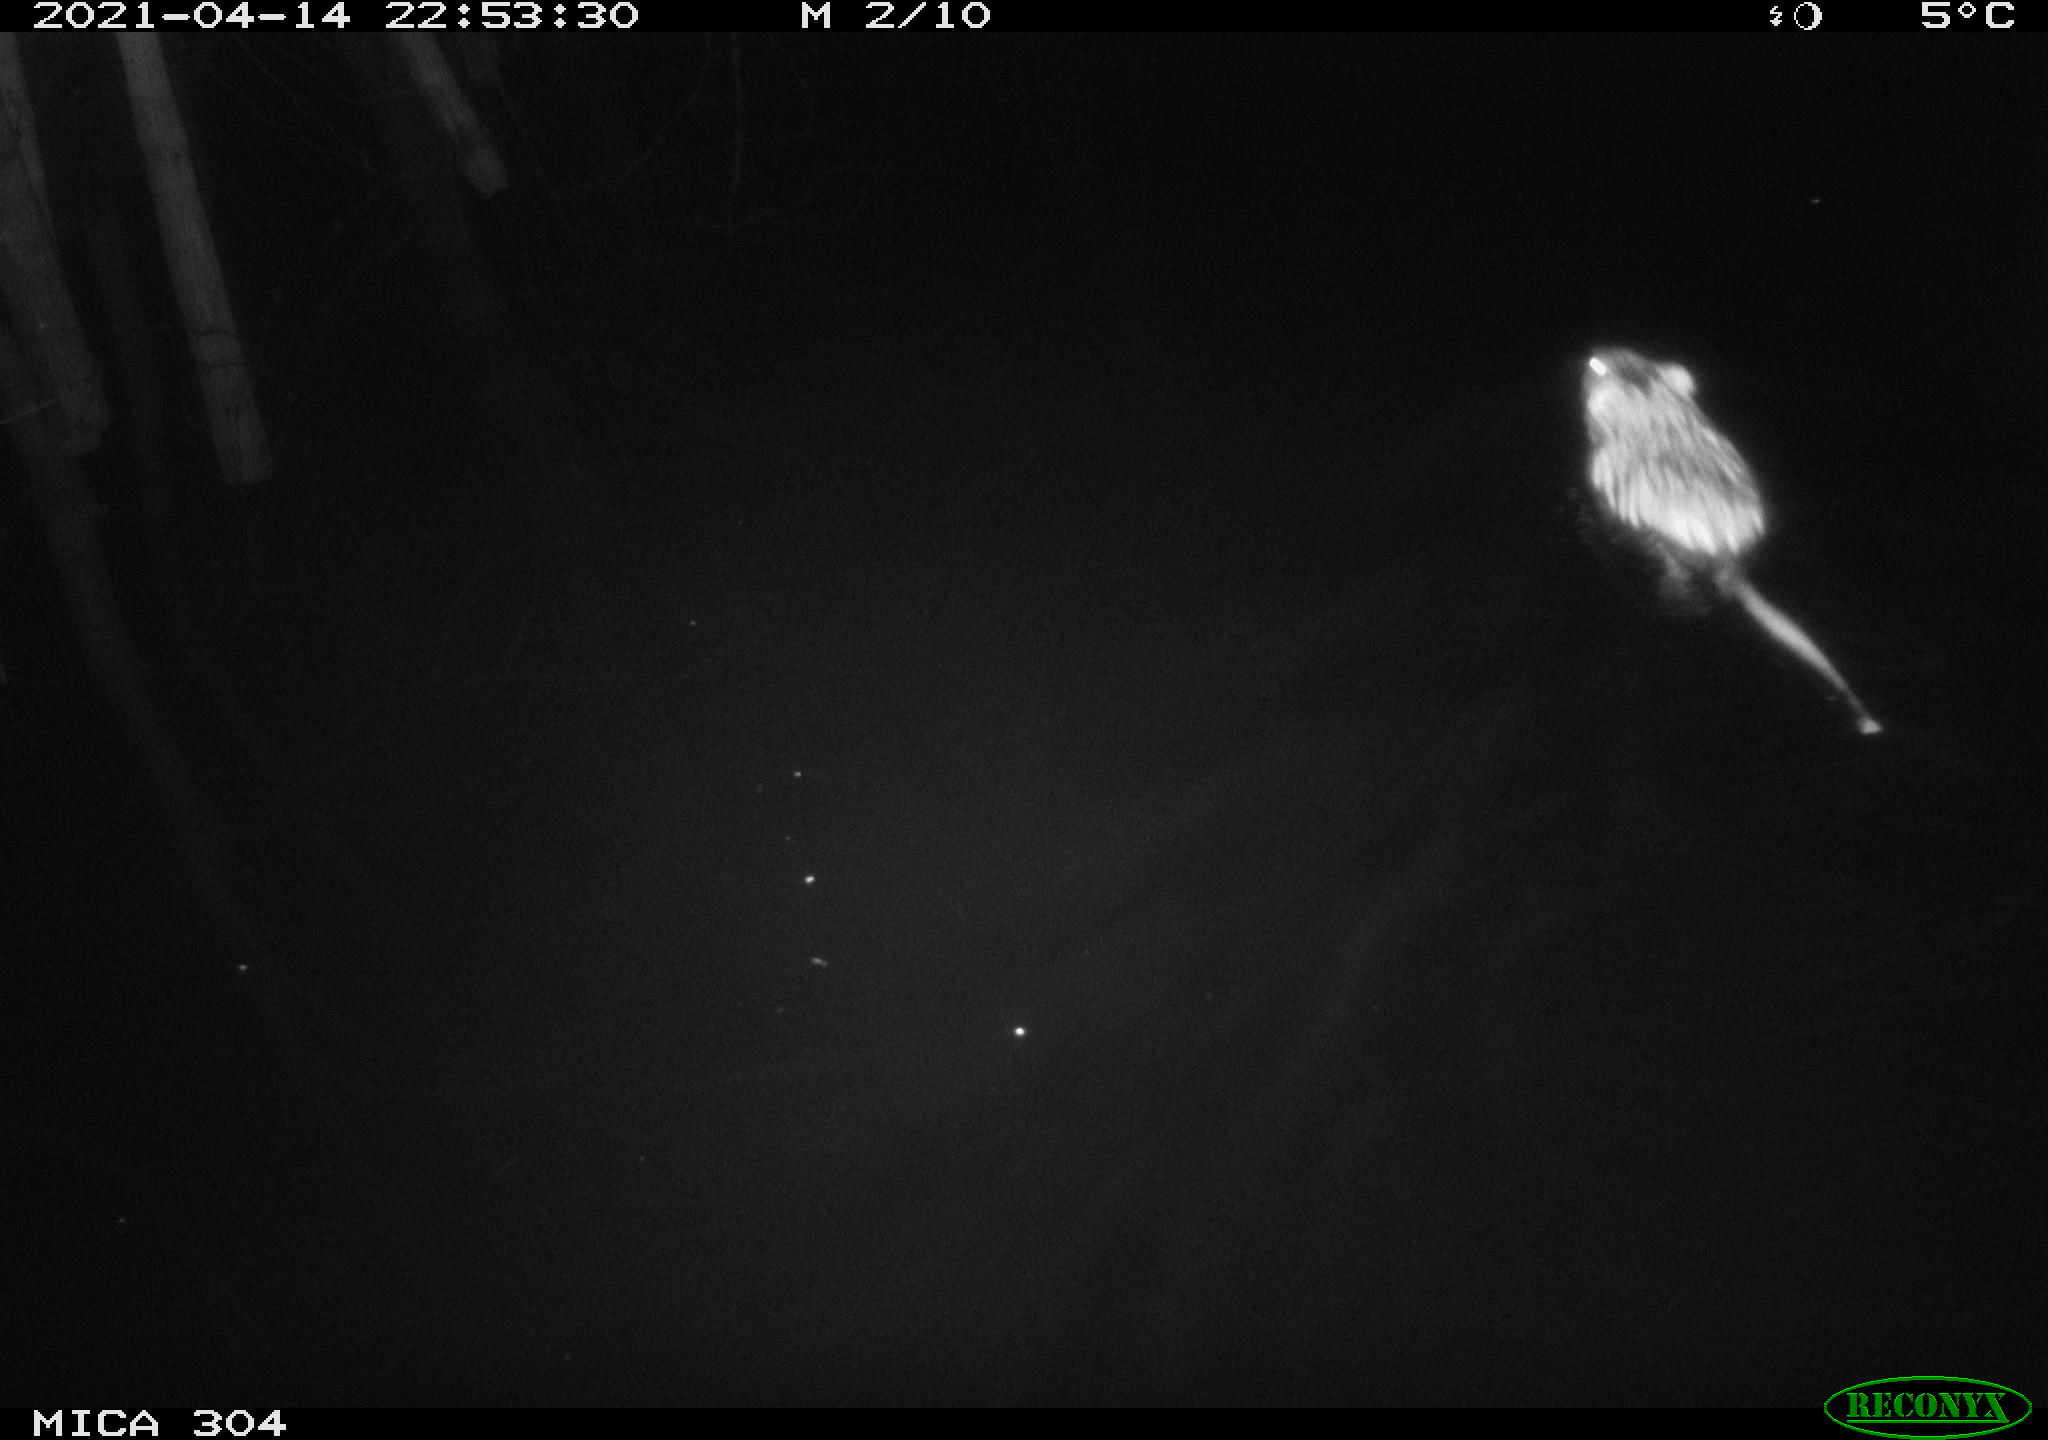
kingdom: Animalia
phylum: Chordata
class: Mammalia
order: Rodentia
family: Cricetidae
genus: Ondatra
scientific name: Ondatra zibethicus
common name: Muskrat
